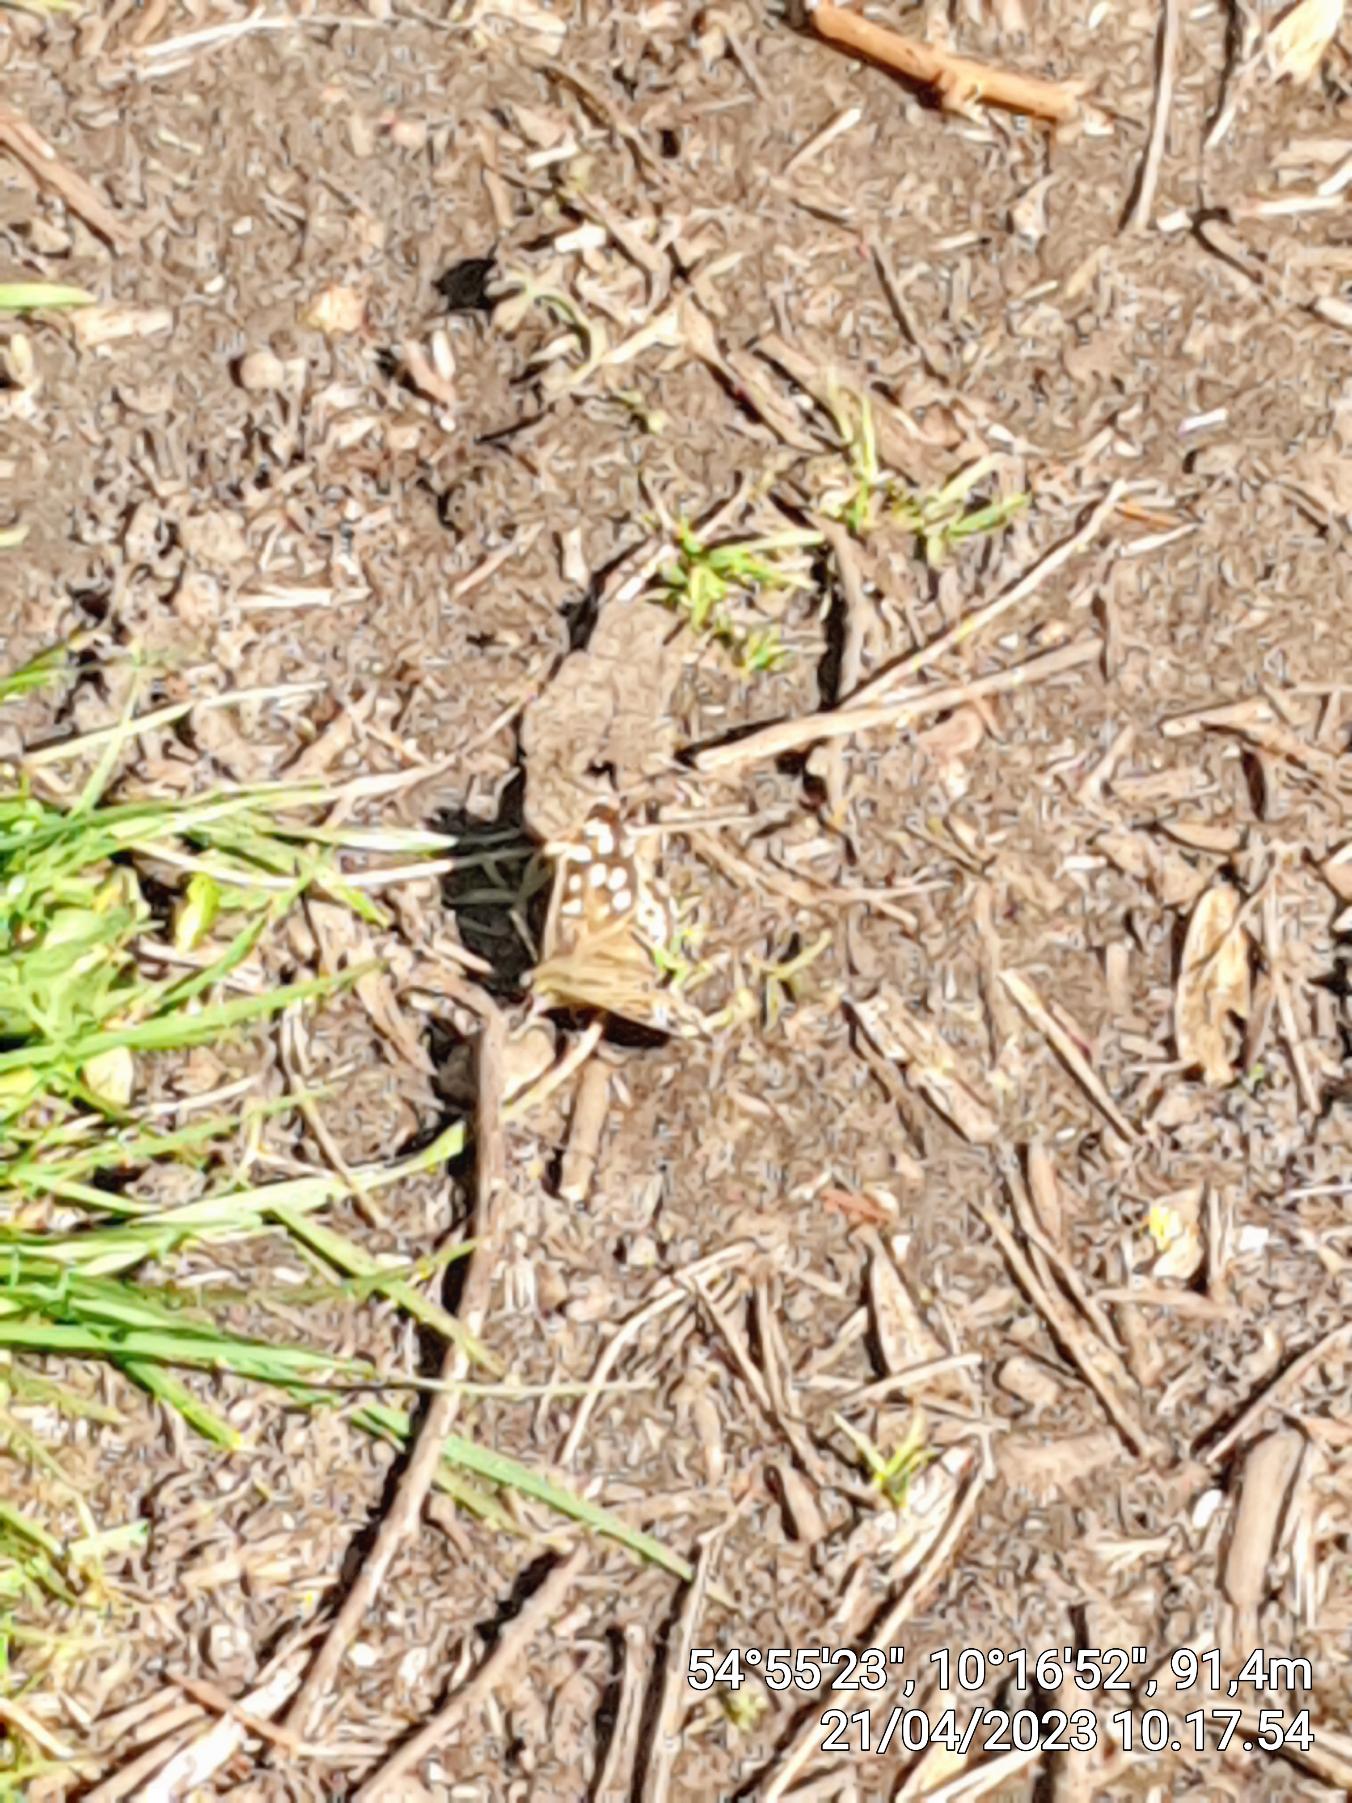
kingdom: Animalia
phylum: Arthropoda
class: Insecta
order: Lepidoptera
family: Nymphalidae
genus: Pararge
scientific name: Pararge aegeria
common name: Skovrandøje
